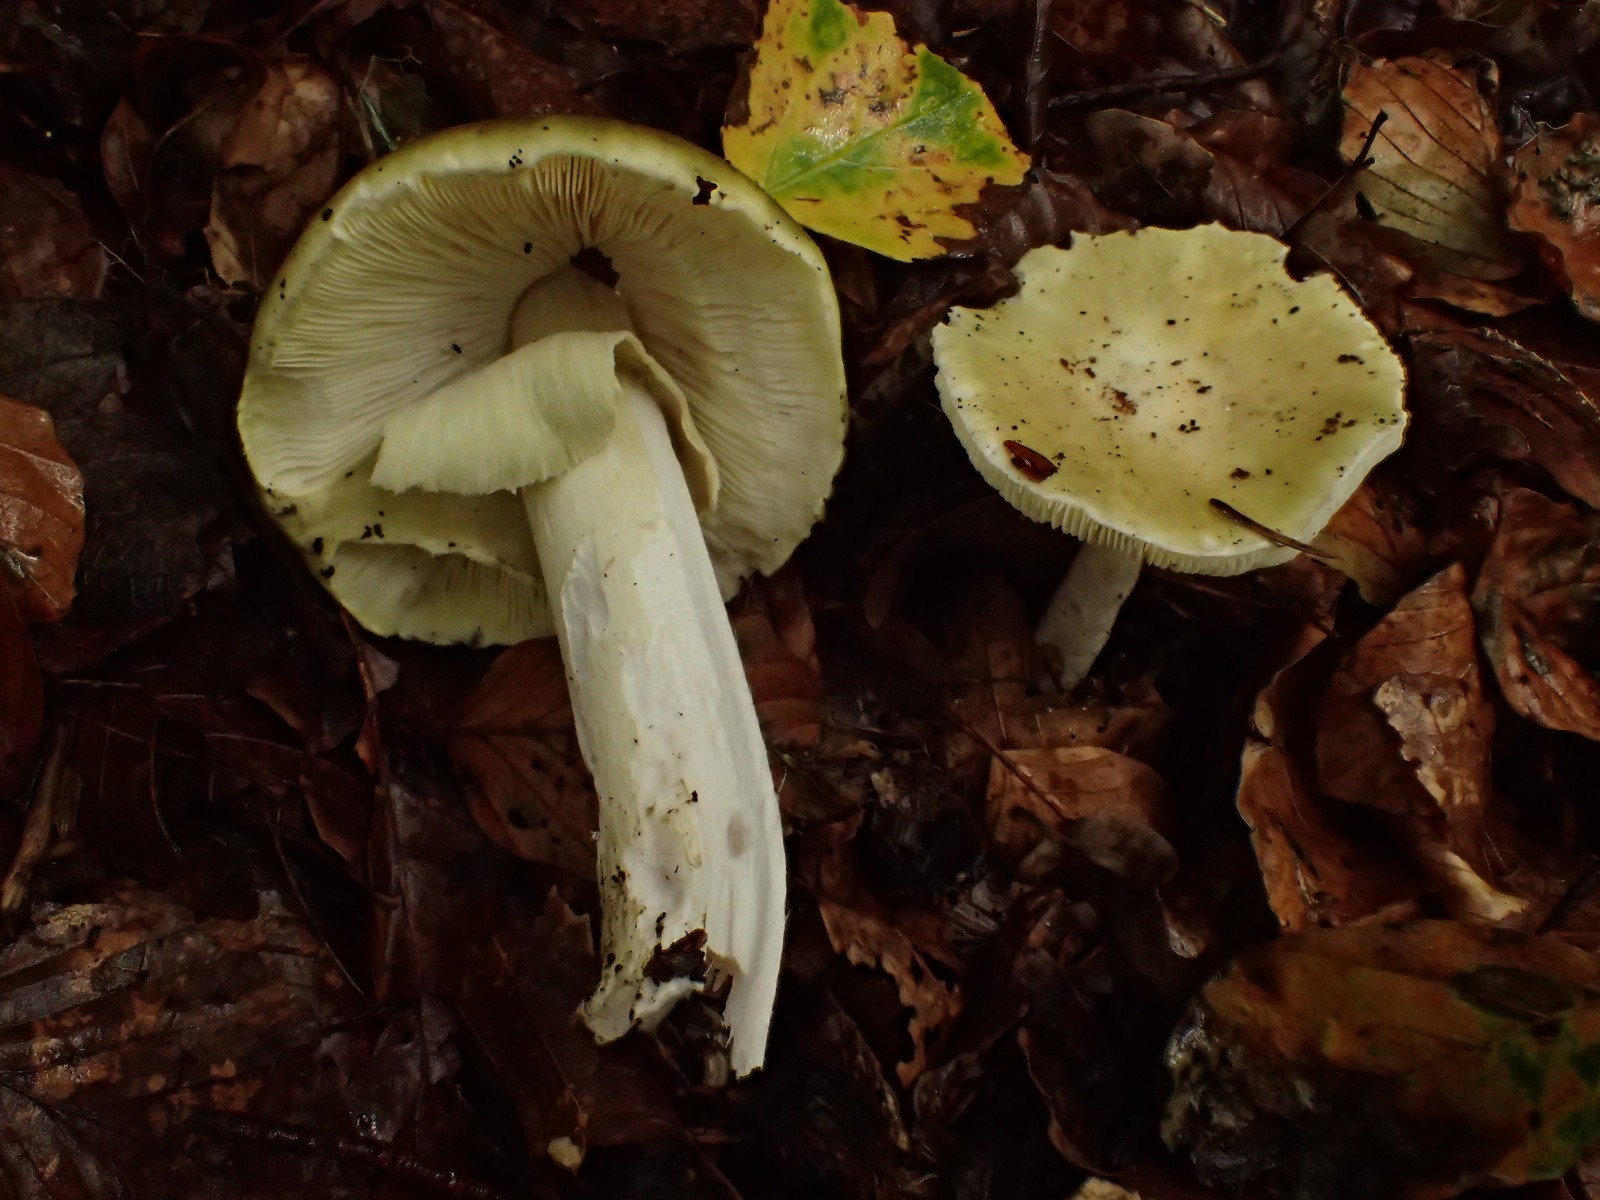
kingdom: Fungi
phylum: Basidiomycota
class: Agaricomycetes
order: Agaricales
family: Amanitaceae
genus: Amanita
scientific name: Amanita phalloides
